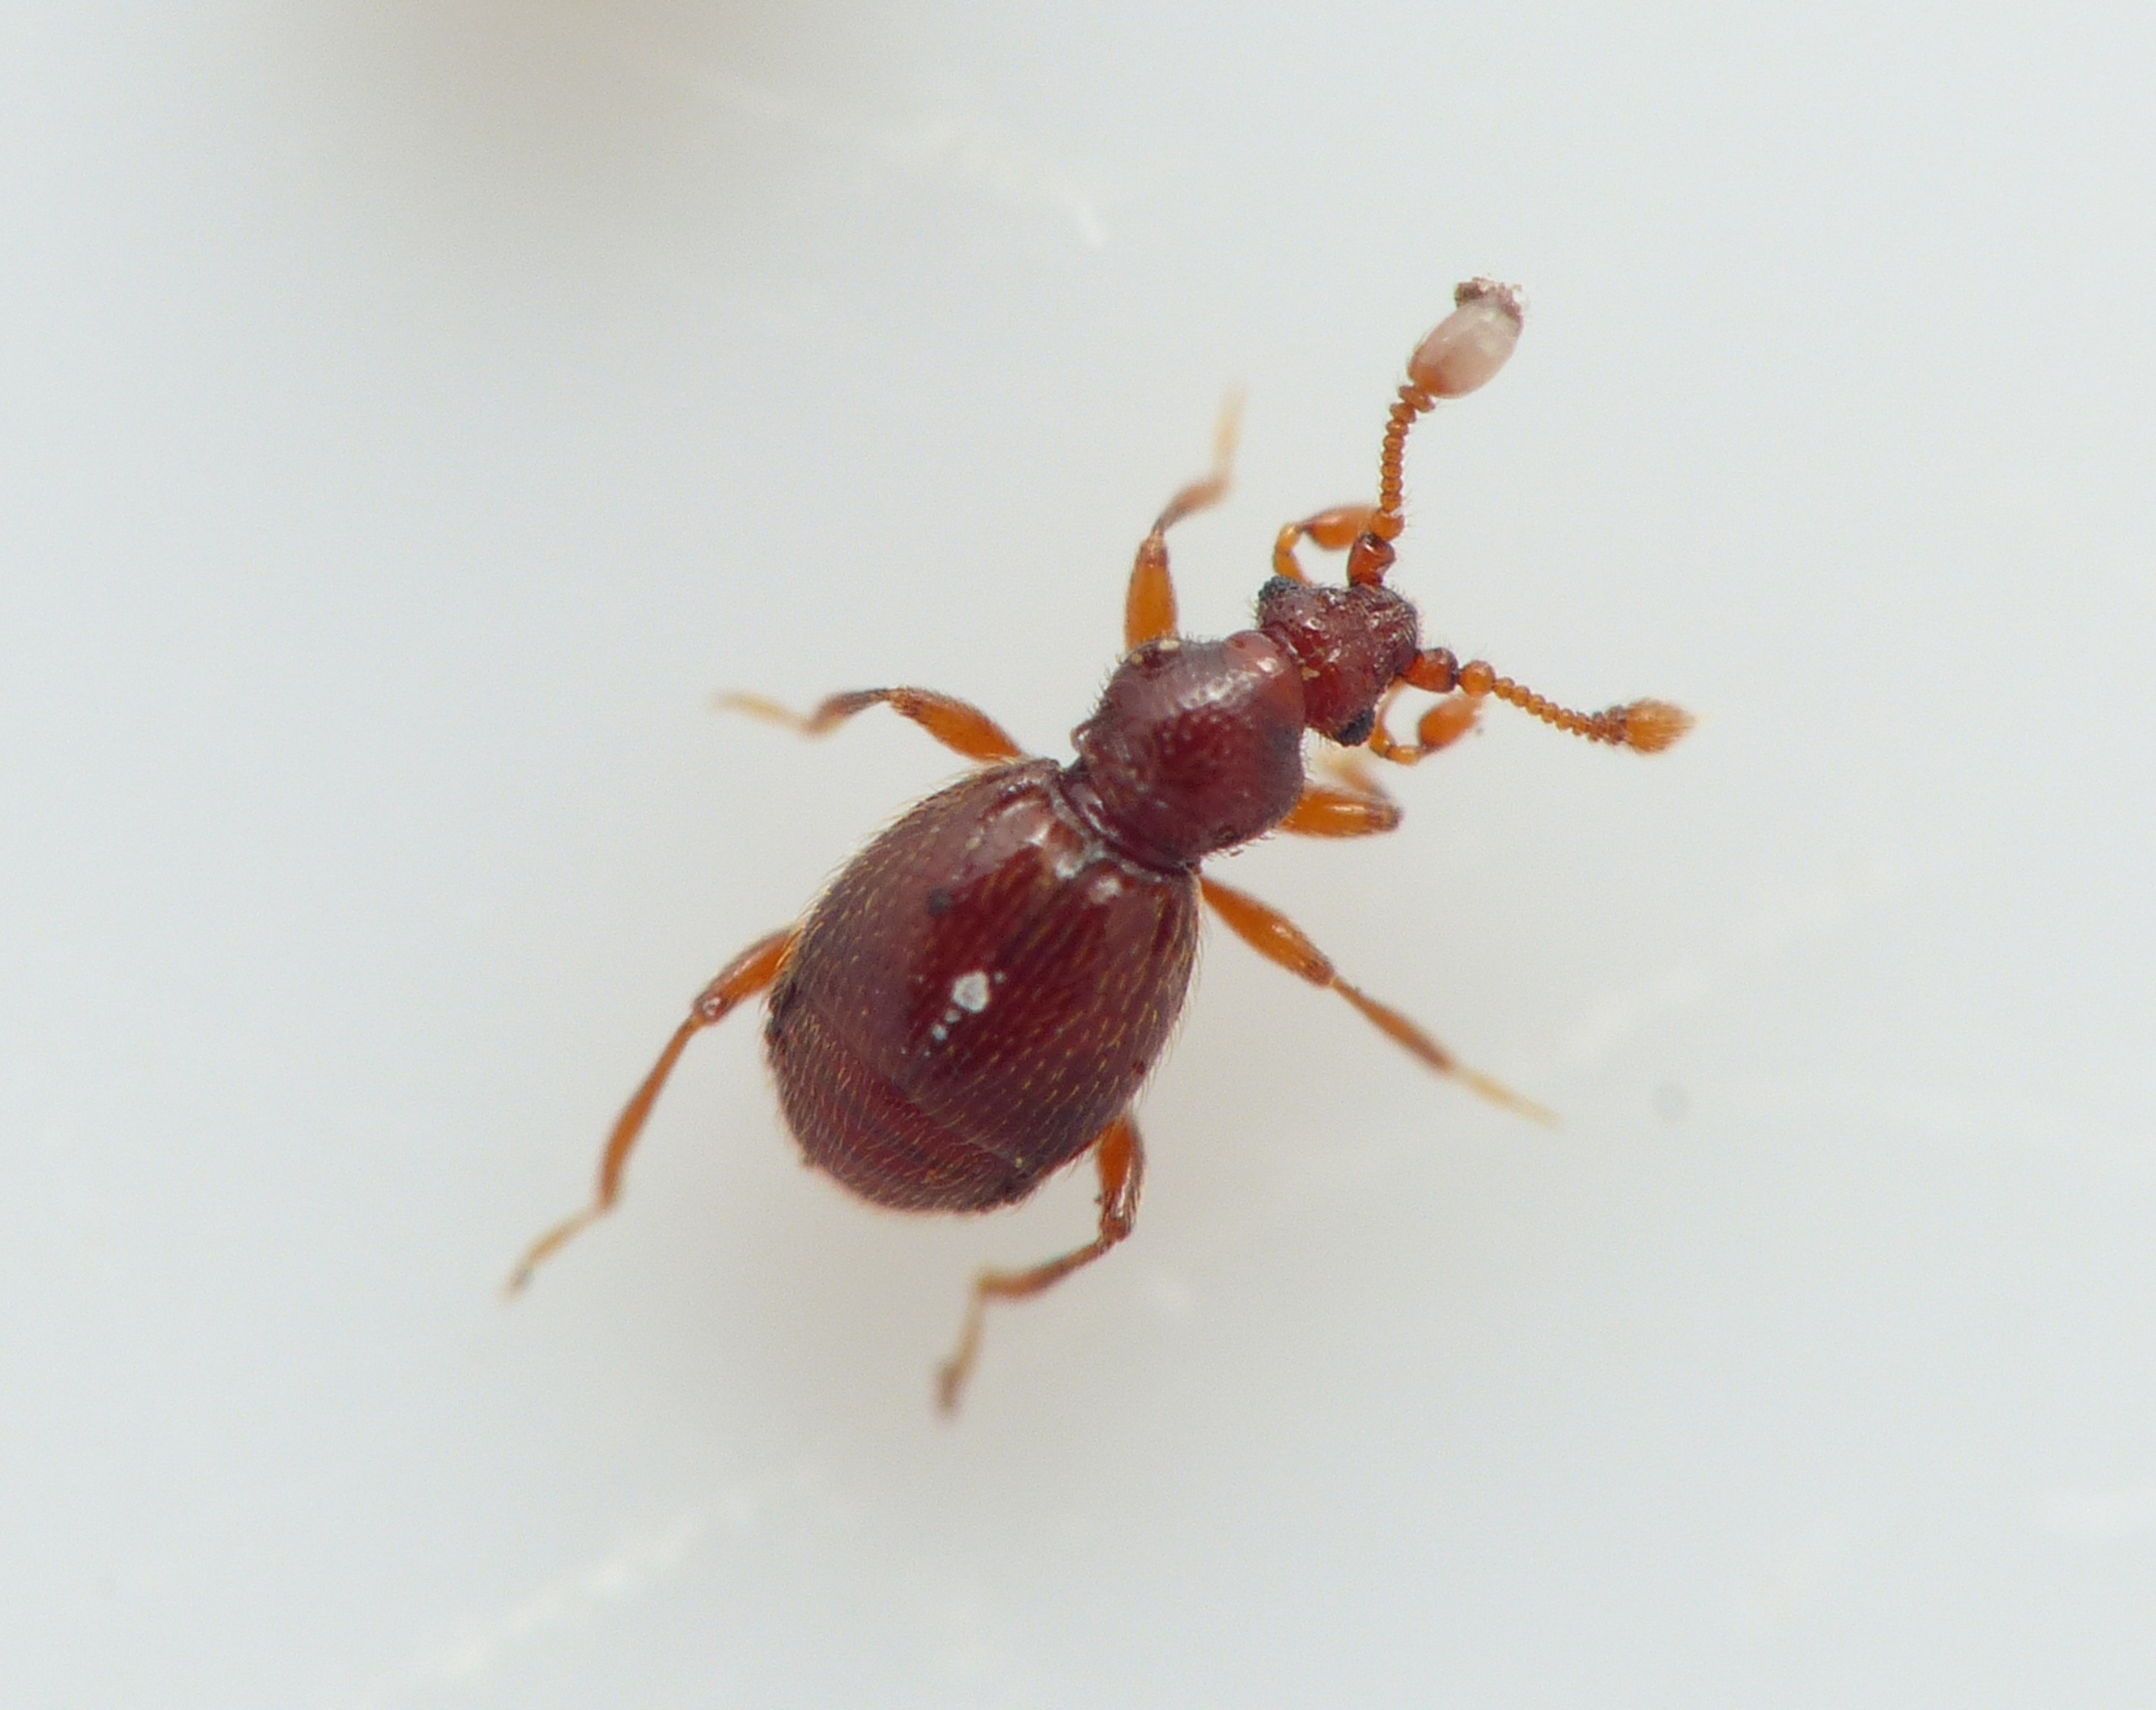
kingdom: Animalia
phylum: Arthropoda
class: Insecta
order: Coleoptera
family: Staphylinidae
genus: Bryaxis
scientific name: Bryaxis puncticollis
